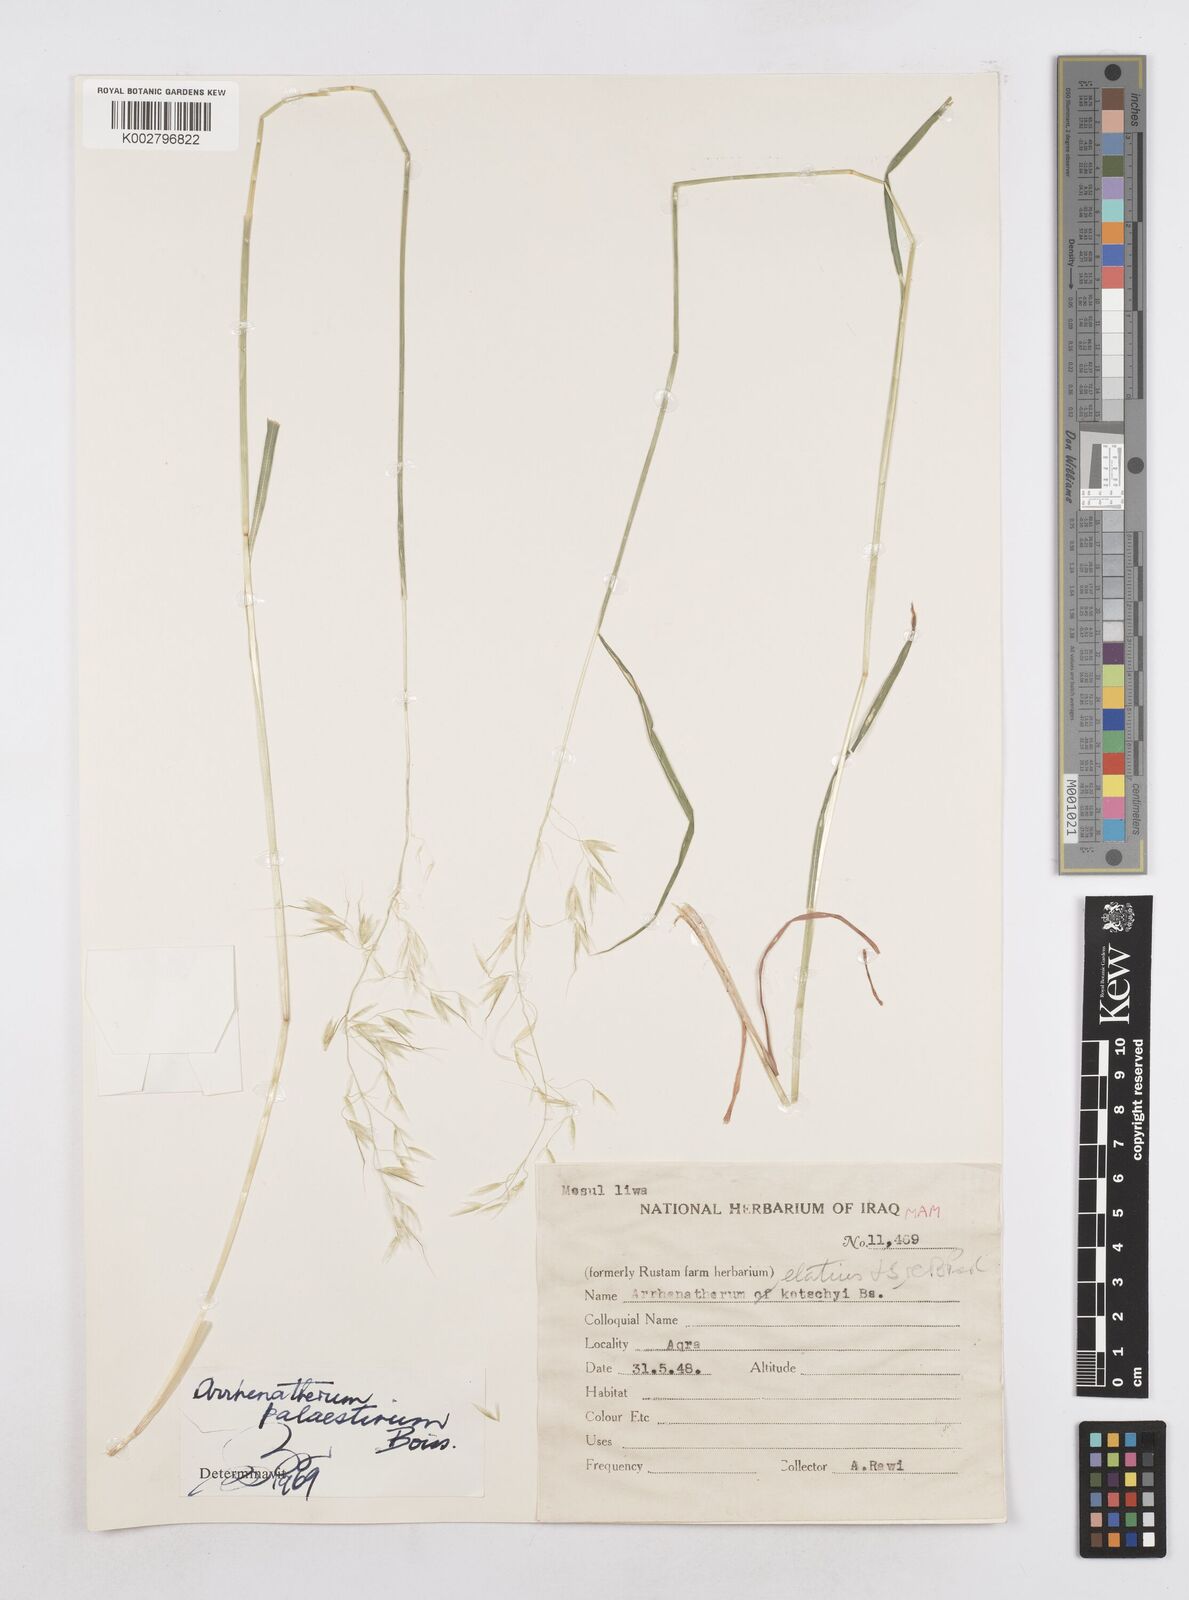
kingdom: Plantae
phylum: Tracheophyta
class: Liliopsida
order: Poales
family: Poaceae
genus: Arrhenatherum
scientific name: Arrhenatherum palaestinum
